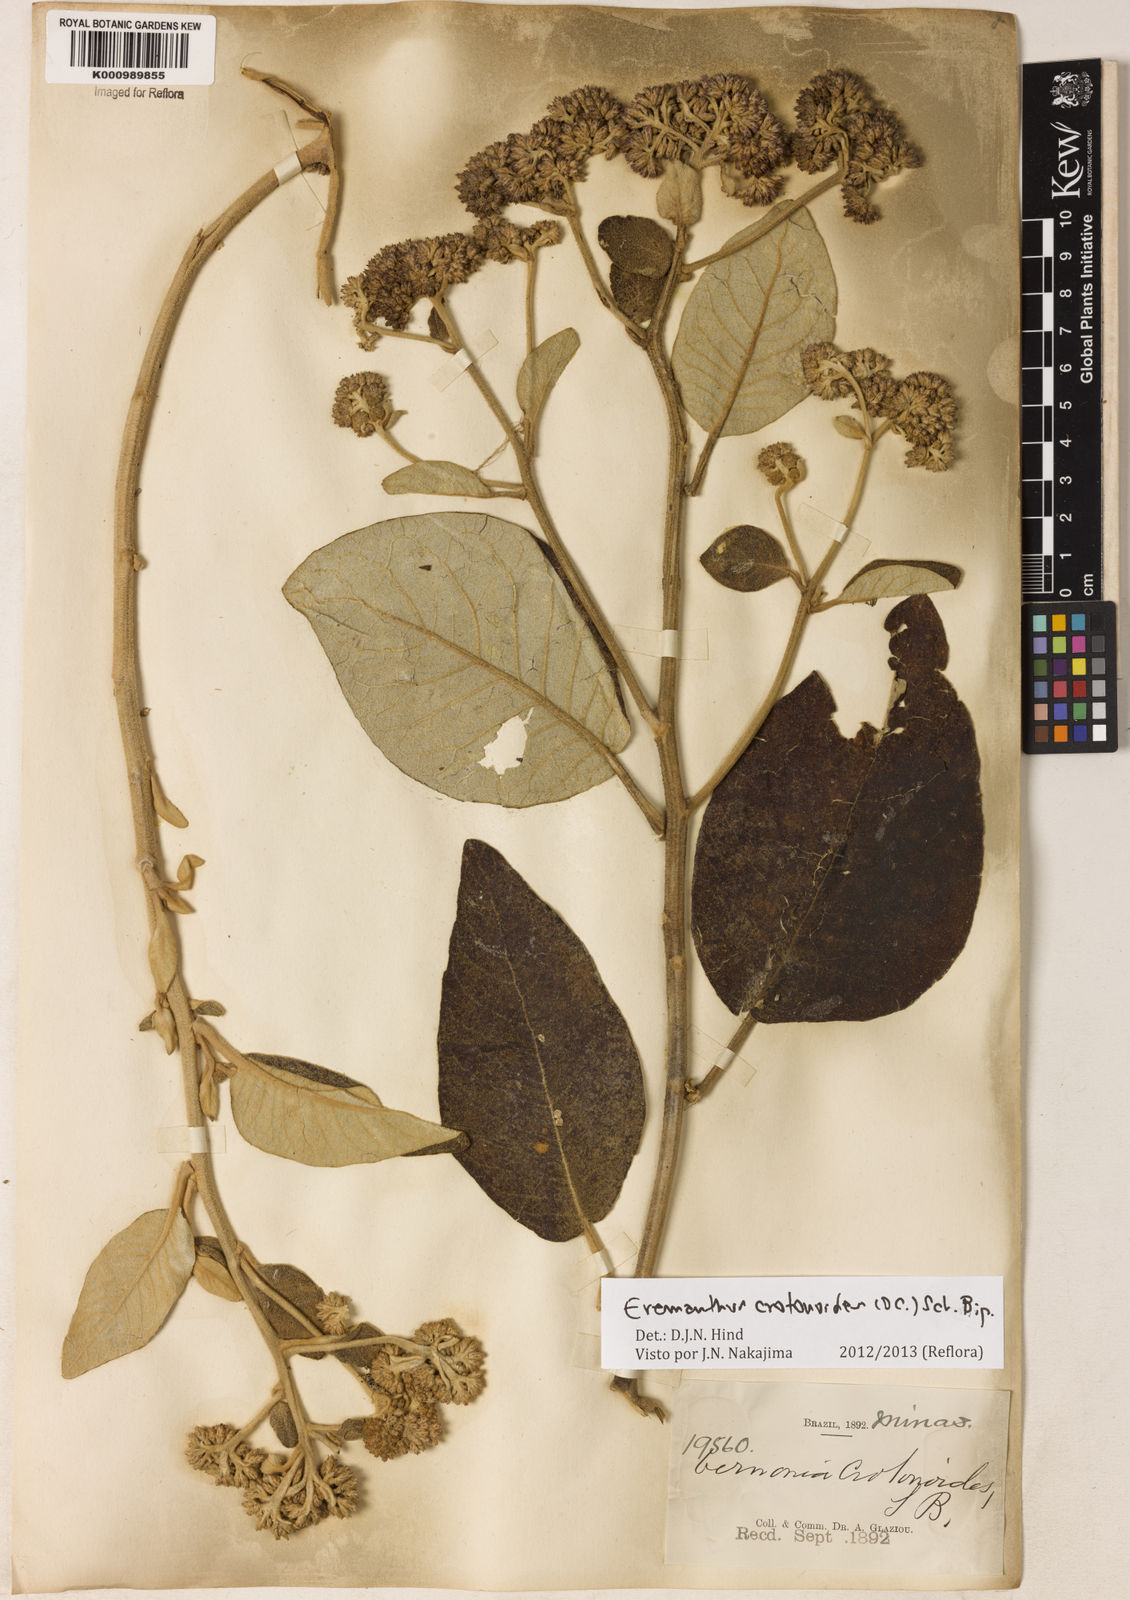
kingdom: Plantae
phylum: Tracheophyta
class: Magnoliopsida
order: Asterales
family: Asteraceae
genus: Eremanthus
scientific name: Eremanthus crotonoides
